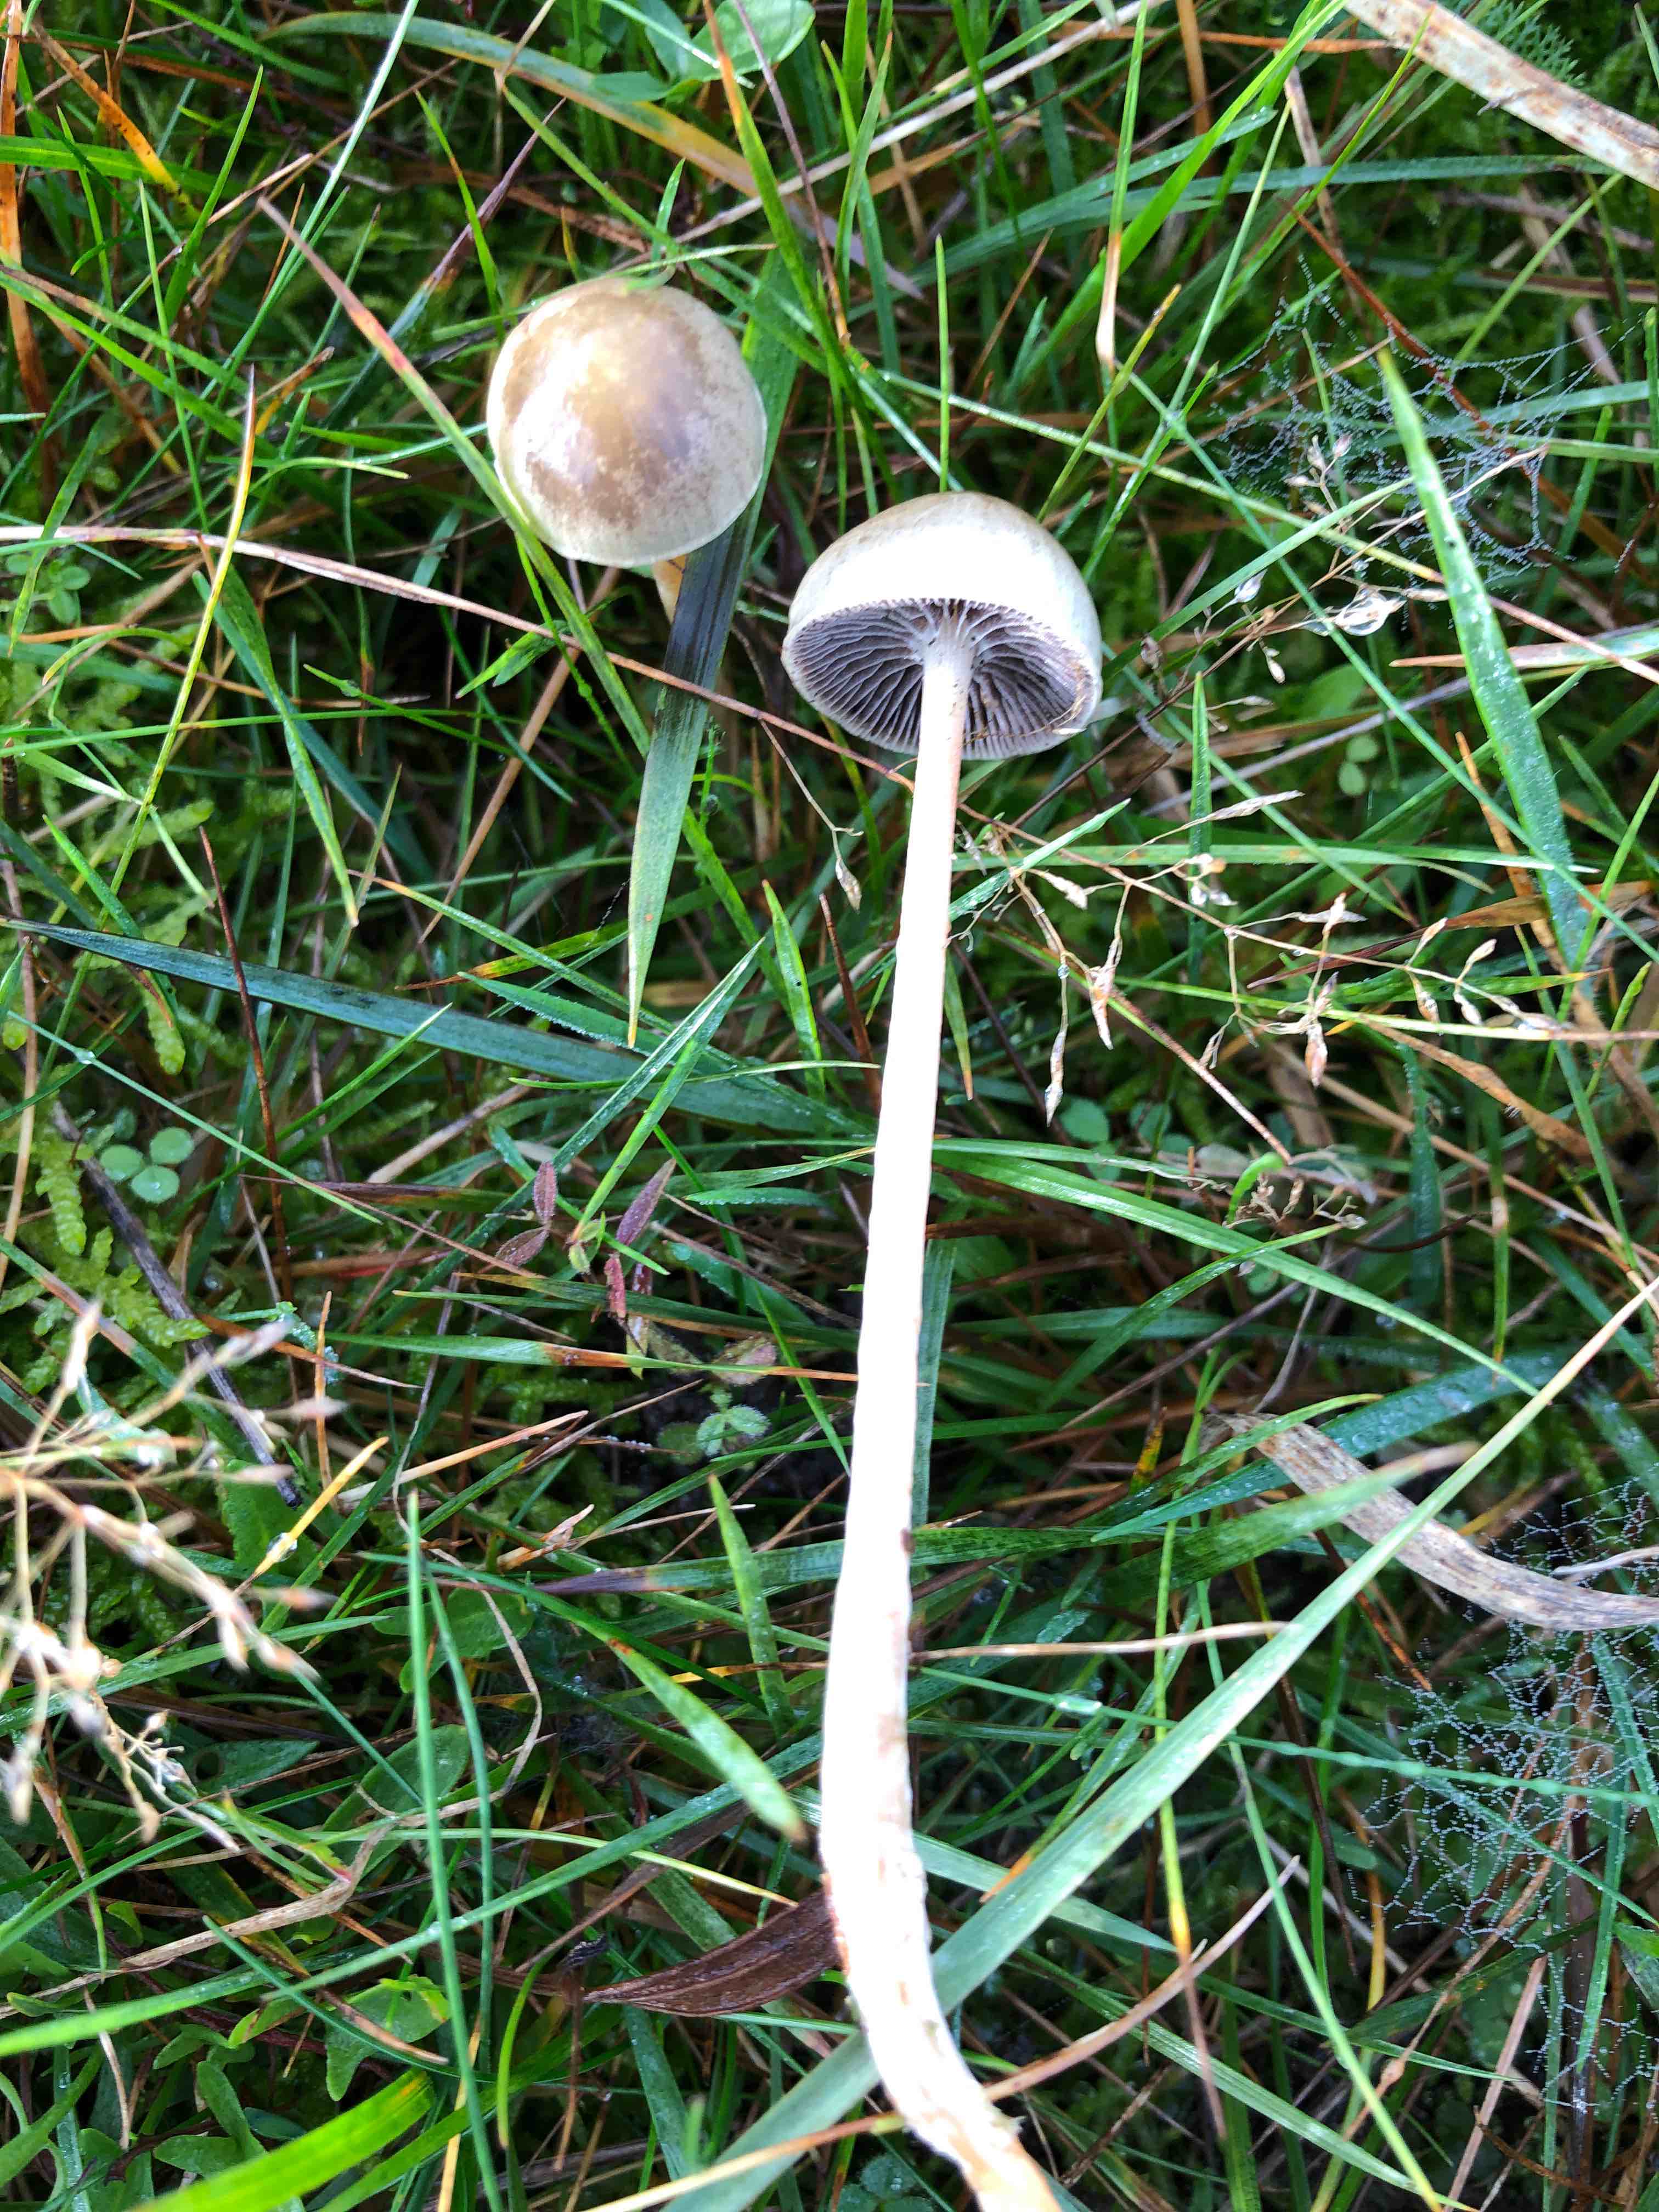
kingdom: Fungi
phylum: Basidiomycota
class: Agaricomycetes
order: Agaricales
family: Strophariaceae
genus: Protostropharia
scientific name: Protostropharia semiglobata
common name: halvkugleformet bredblad
